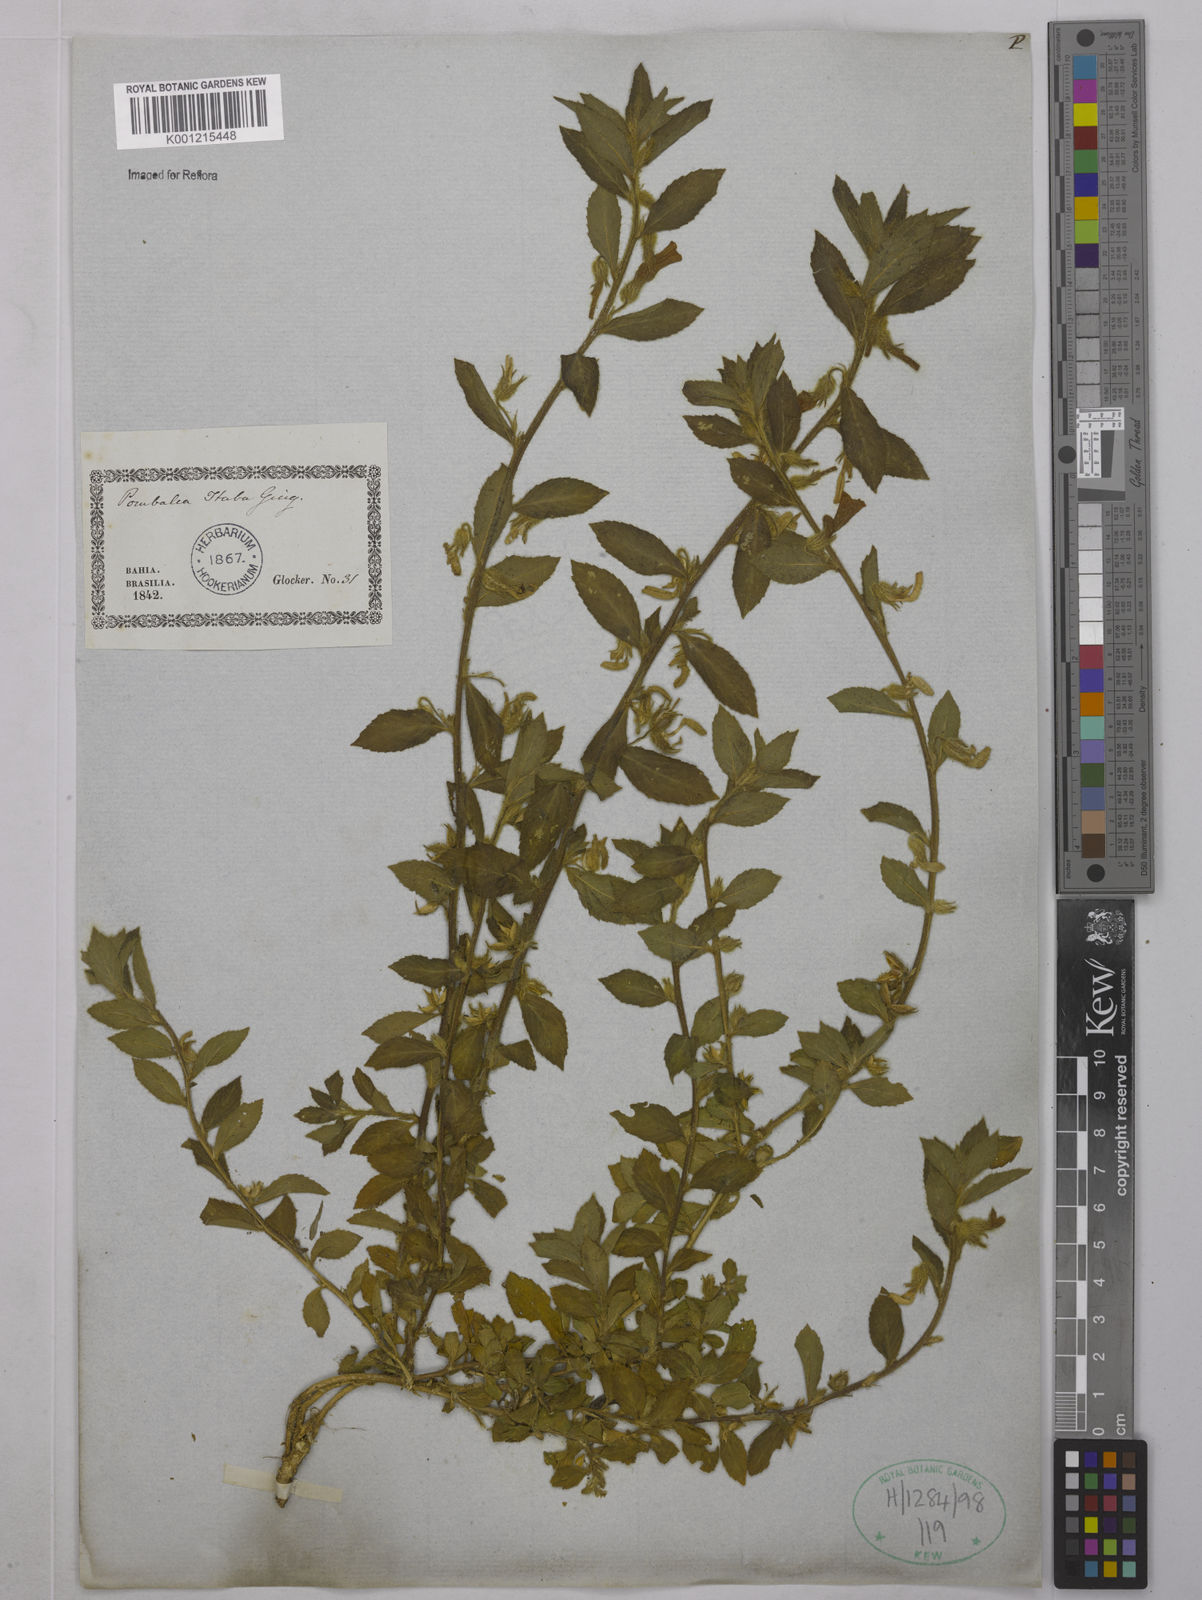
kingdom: Plantae
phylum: Tracheophyta
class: Magnoliopsida
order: Malpighiales
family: Violaceae
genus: Hybanthus
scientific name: Hybanthus
